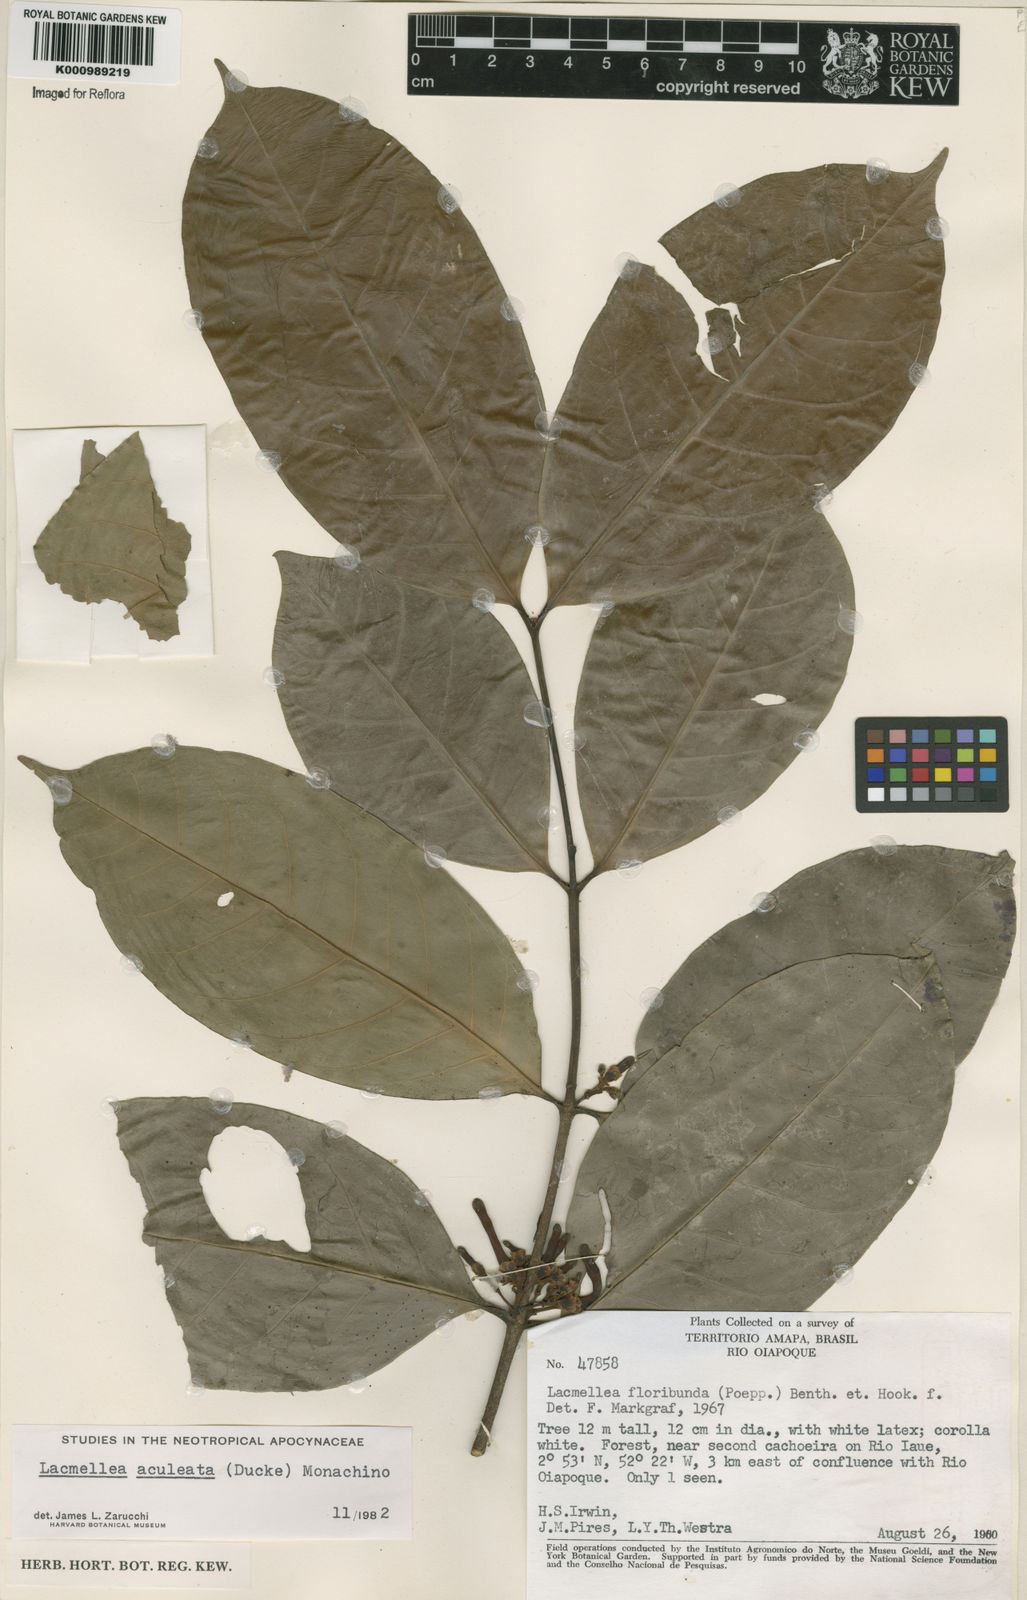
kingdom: Plantae
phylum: Tracheophyta
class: Magnoliopsida
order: Gentianales
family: Apocynaceae
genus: Lacmellea
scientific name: Lacmellea floribunda
